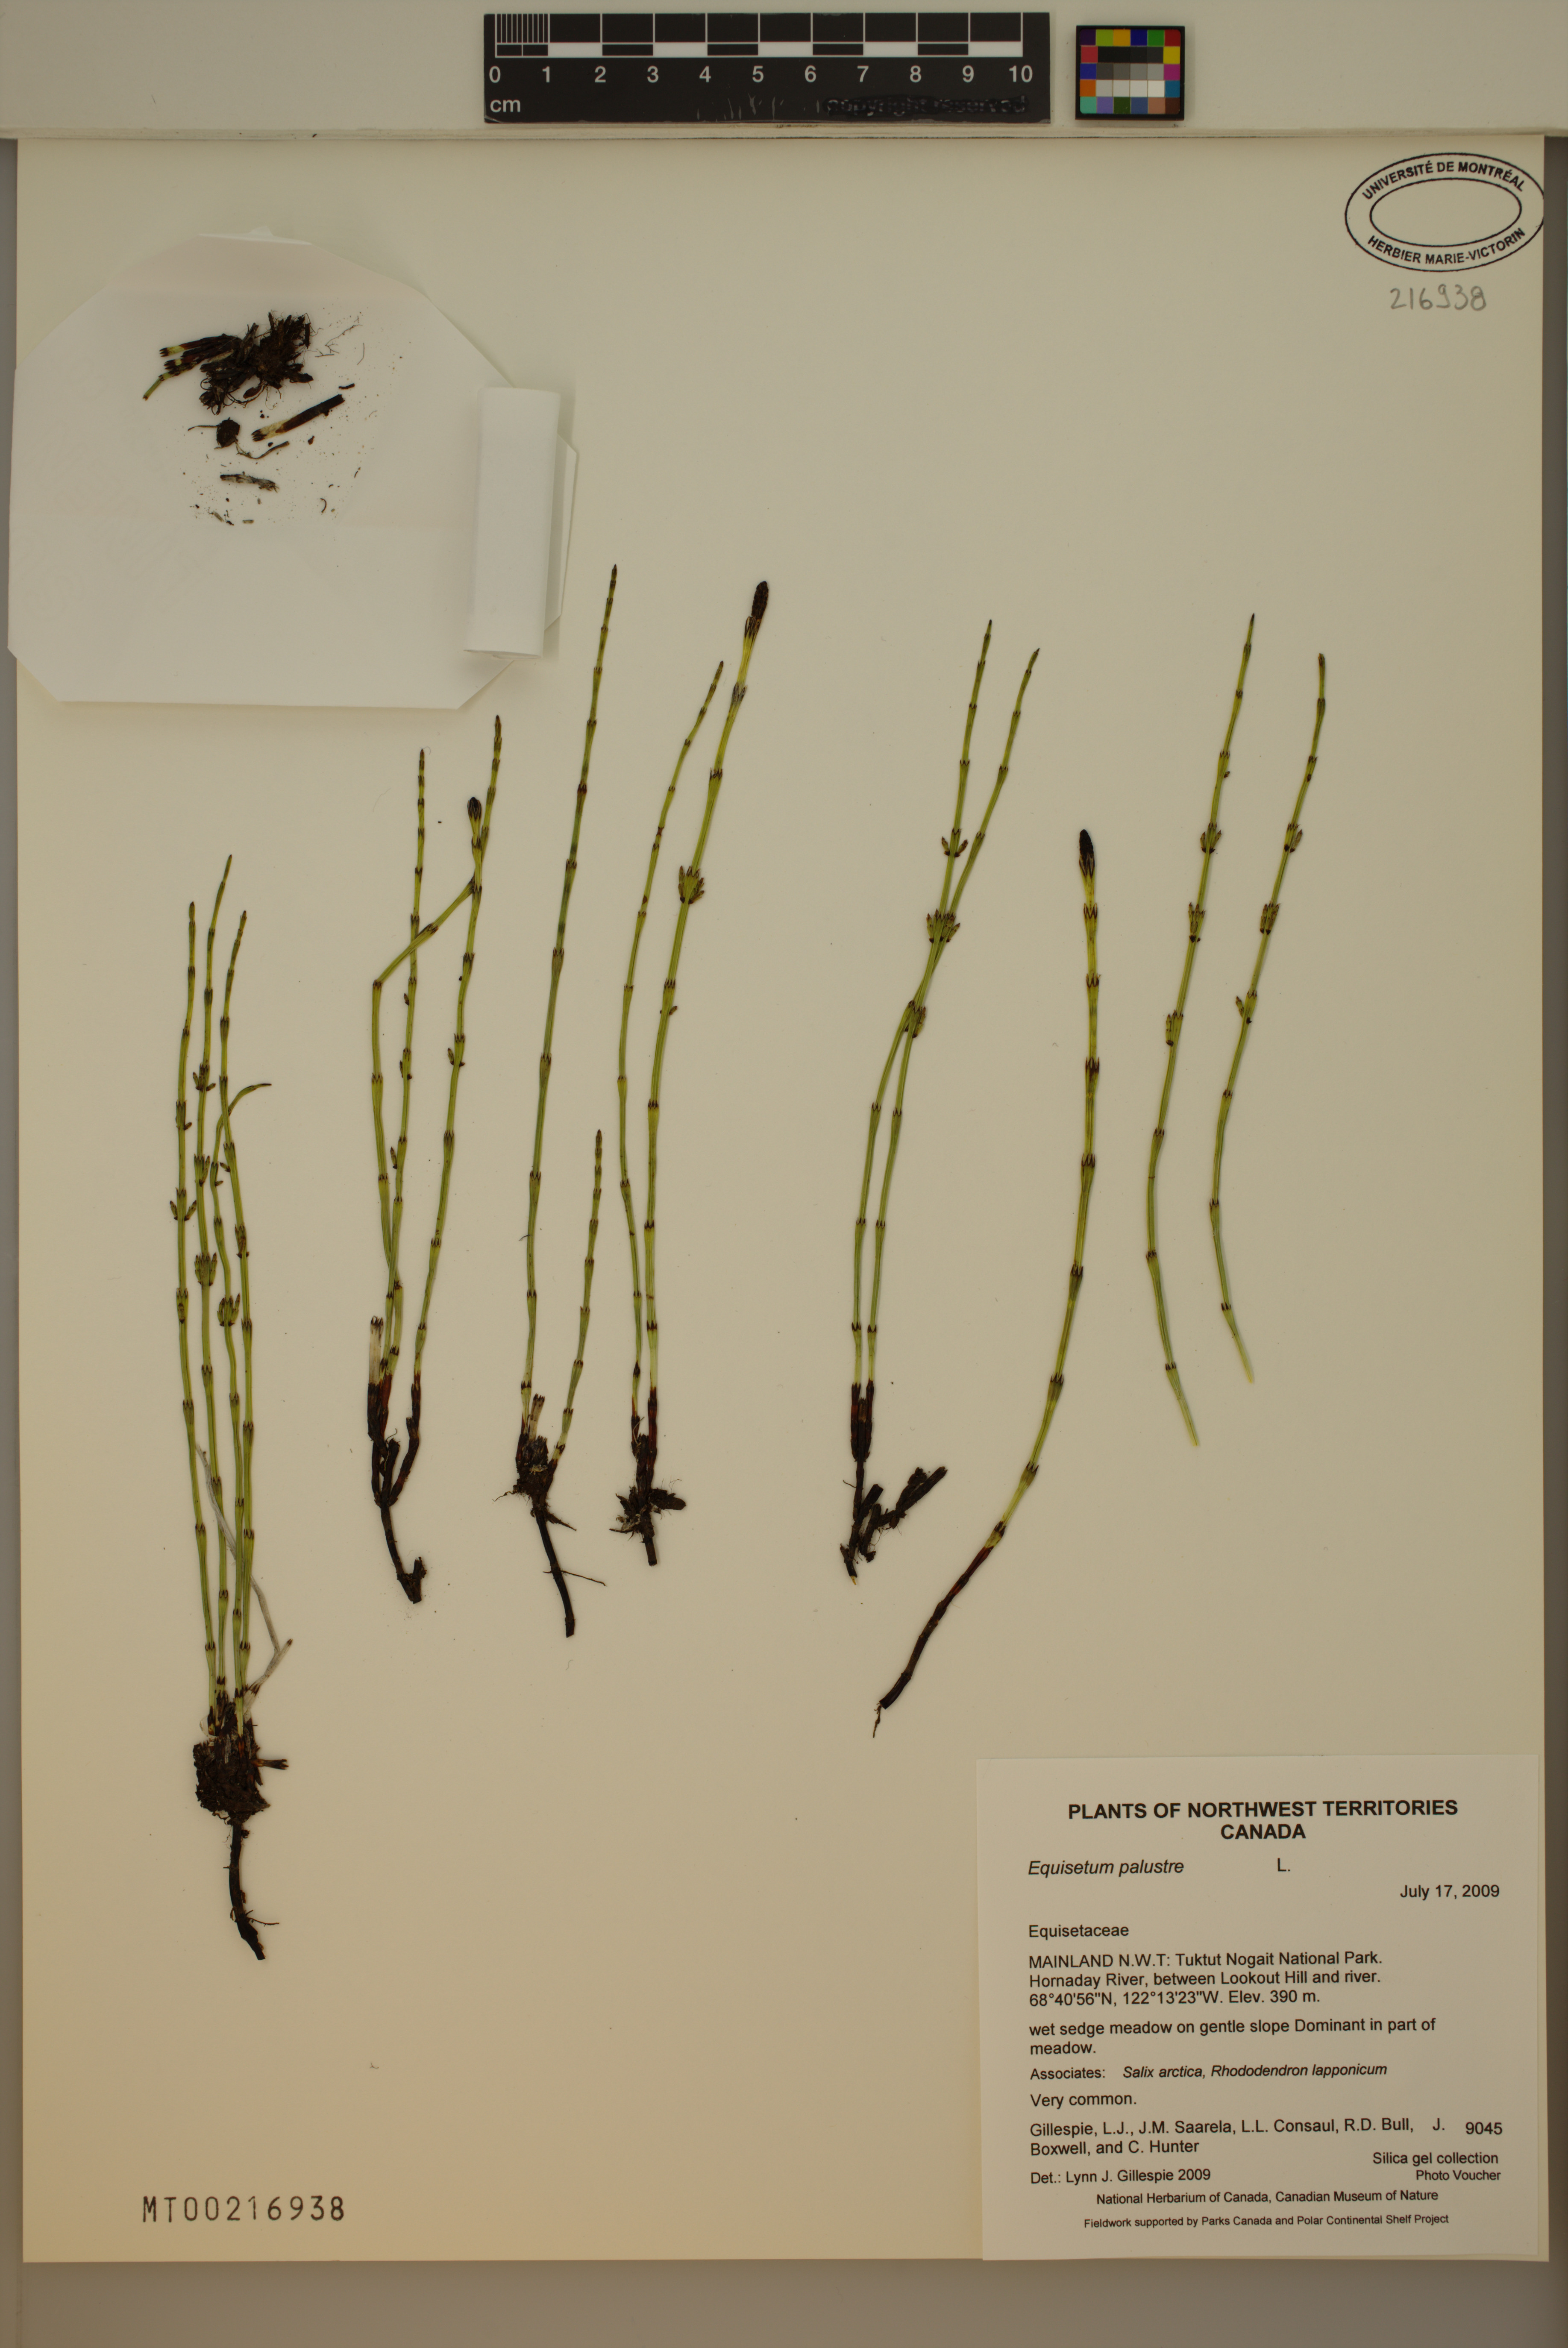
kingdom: Plantae
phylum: Tracheophyta
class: Polypodiopsida
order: Equisetales
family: Equisetaceae
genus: Equisetum
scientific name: Equisetum palustre
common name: Marsh horsetail
